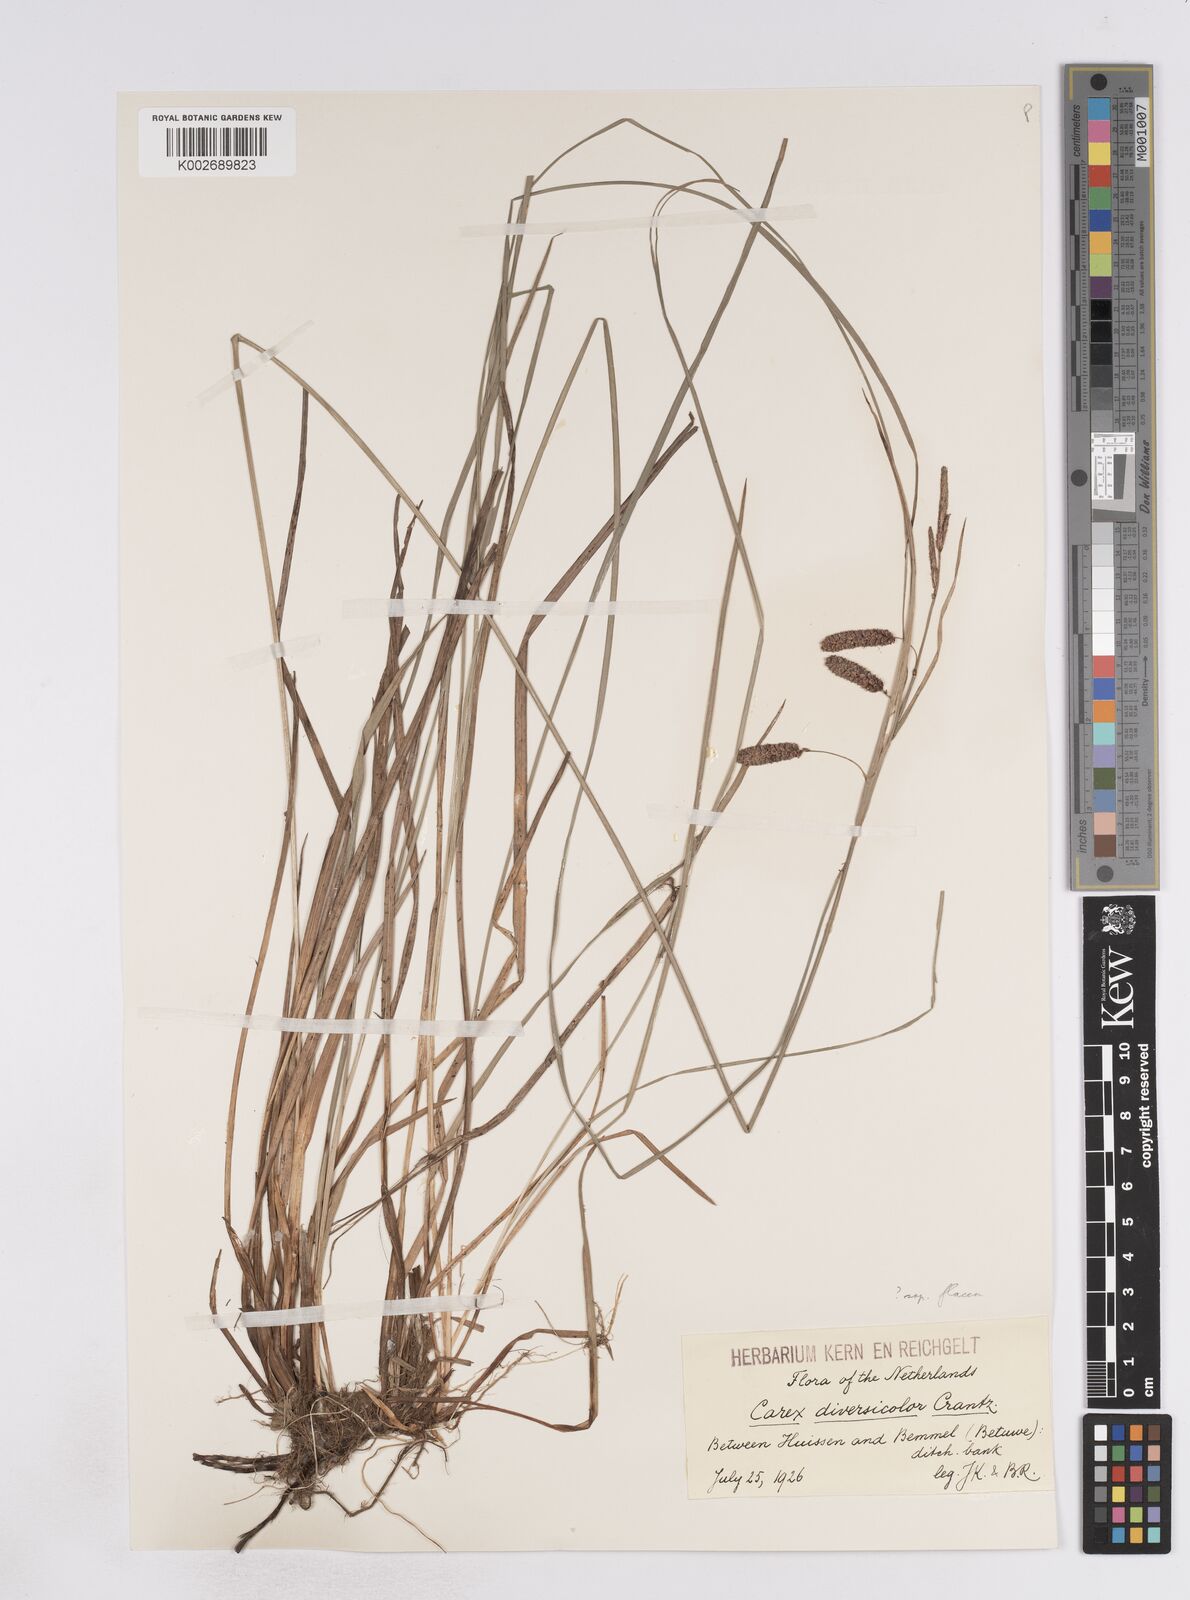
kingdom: Plantae
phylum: Tracheophyta
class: Liliopsida
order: Poales
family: Cyperaceae
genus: Carex
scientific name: Carex flacca
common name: Glaucous sedge
